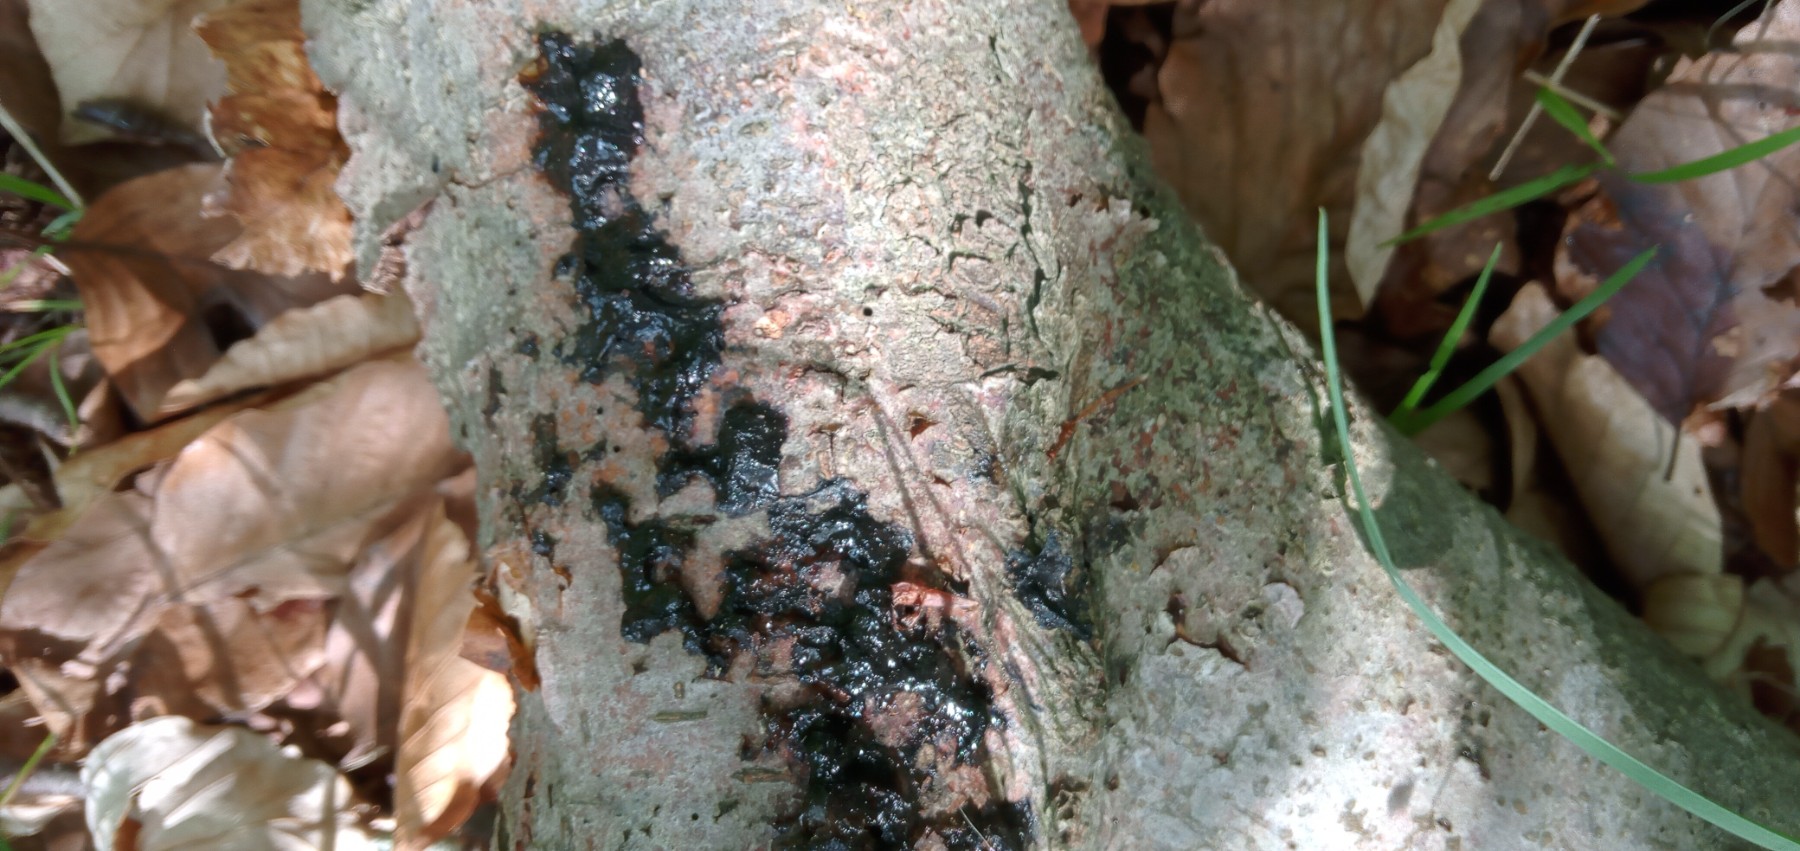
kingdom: Fungi
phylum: Basidiomycota
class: Agaricomycetes
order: Auriculariales
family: Auriculariaceae
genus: Exidia
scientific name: Exidia nigricans
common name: almindelig bævretop
